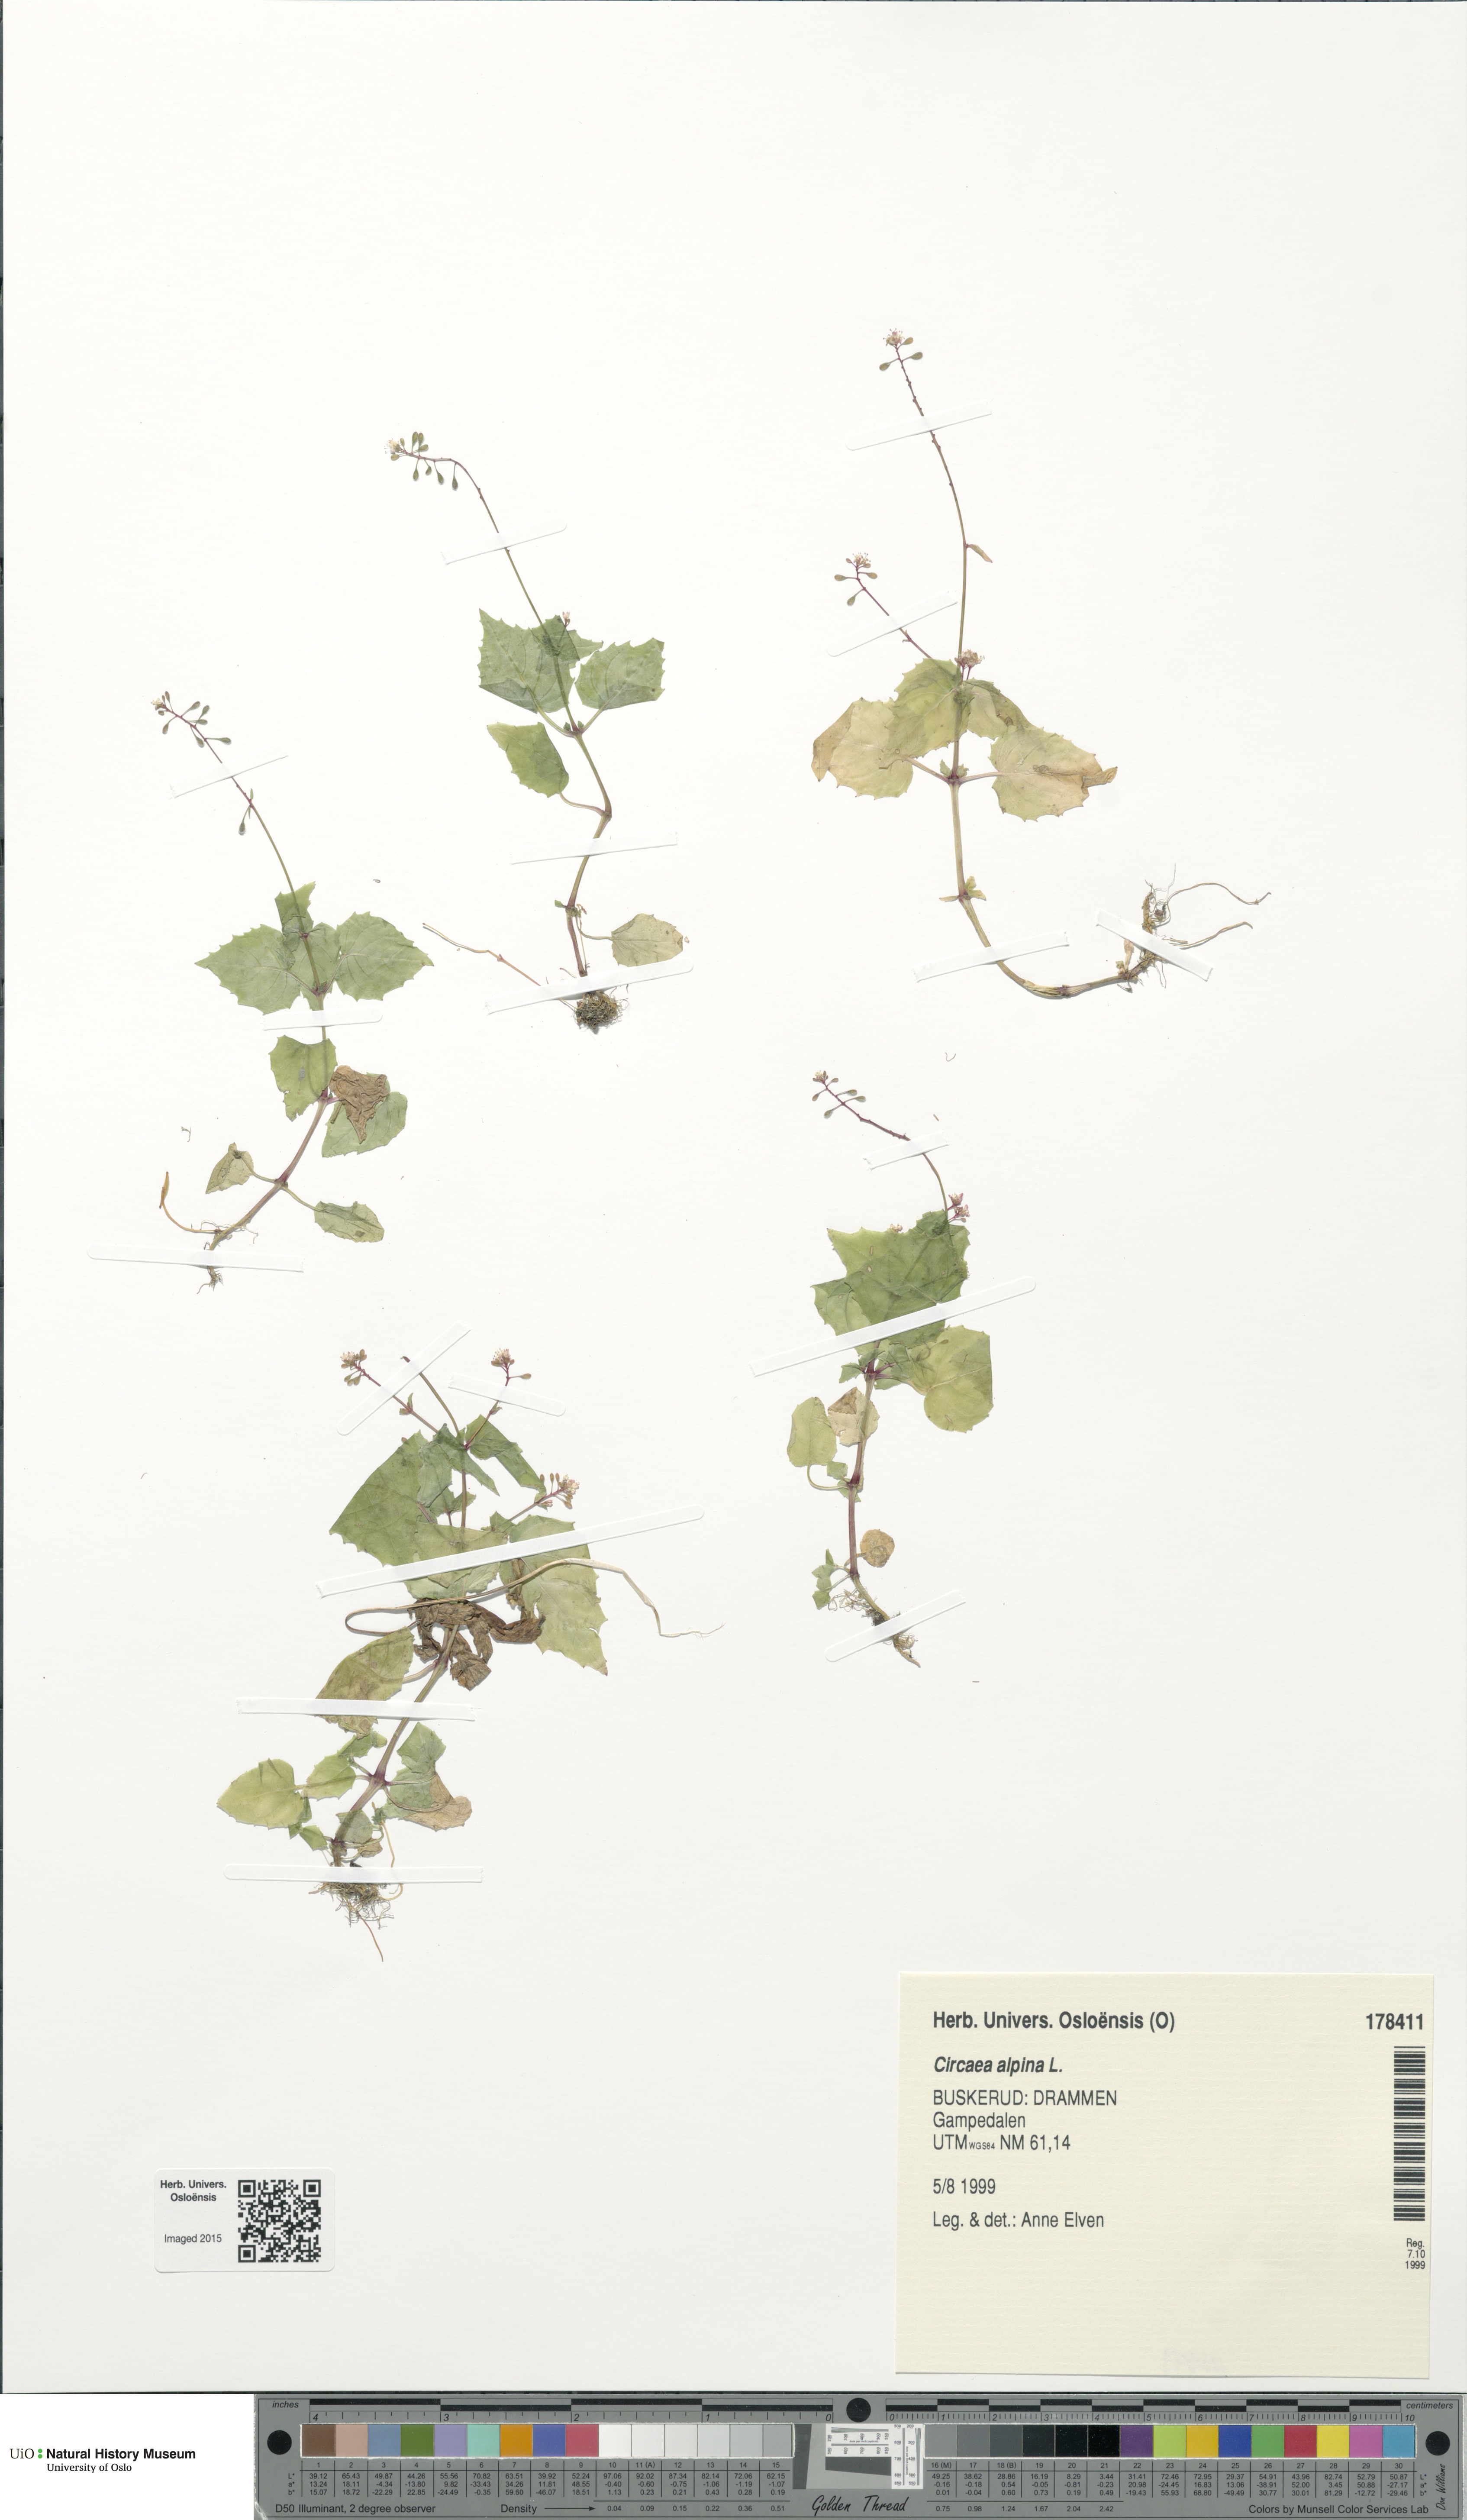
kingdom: Plantae
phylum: Tracheophyta
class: Magnoliopsida
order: Myrtales
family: Onagraceae
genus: Circaea
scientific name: Circaea alpina
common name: Alpine enchanter's-nightshade
